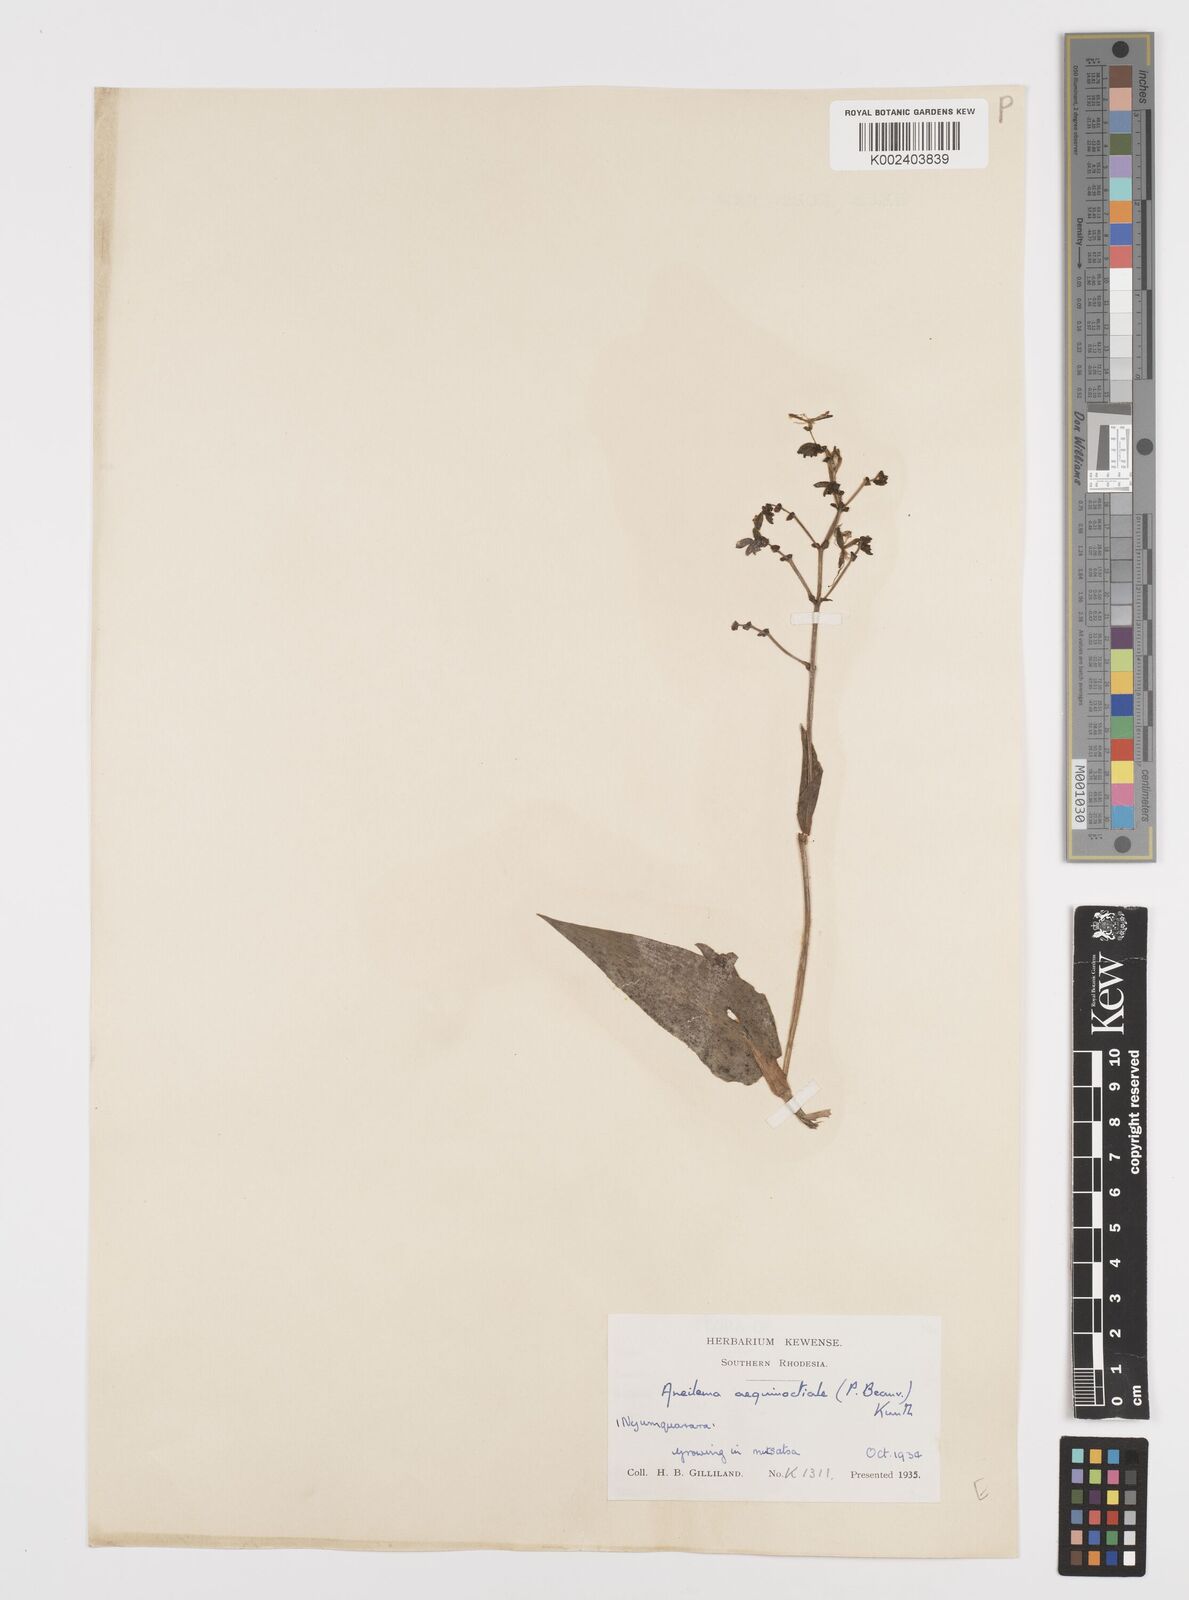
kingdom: Plantae
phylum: Tracheophyta
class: Liliopsida
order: Commelinales
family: Commelinaceae
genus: Aneilema
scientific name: Aneilema aequinoctiale
